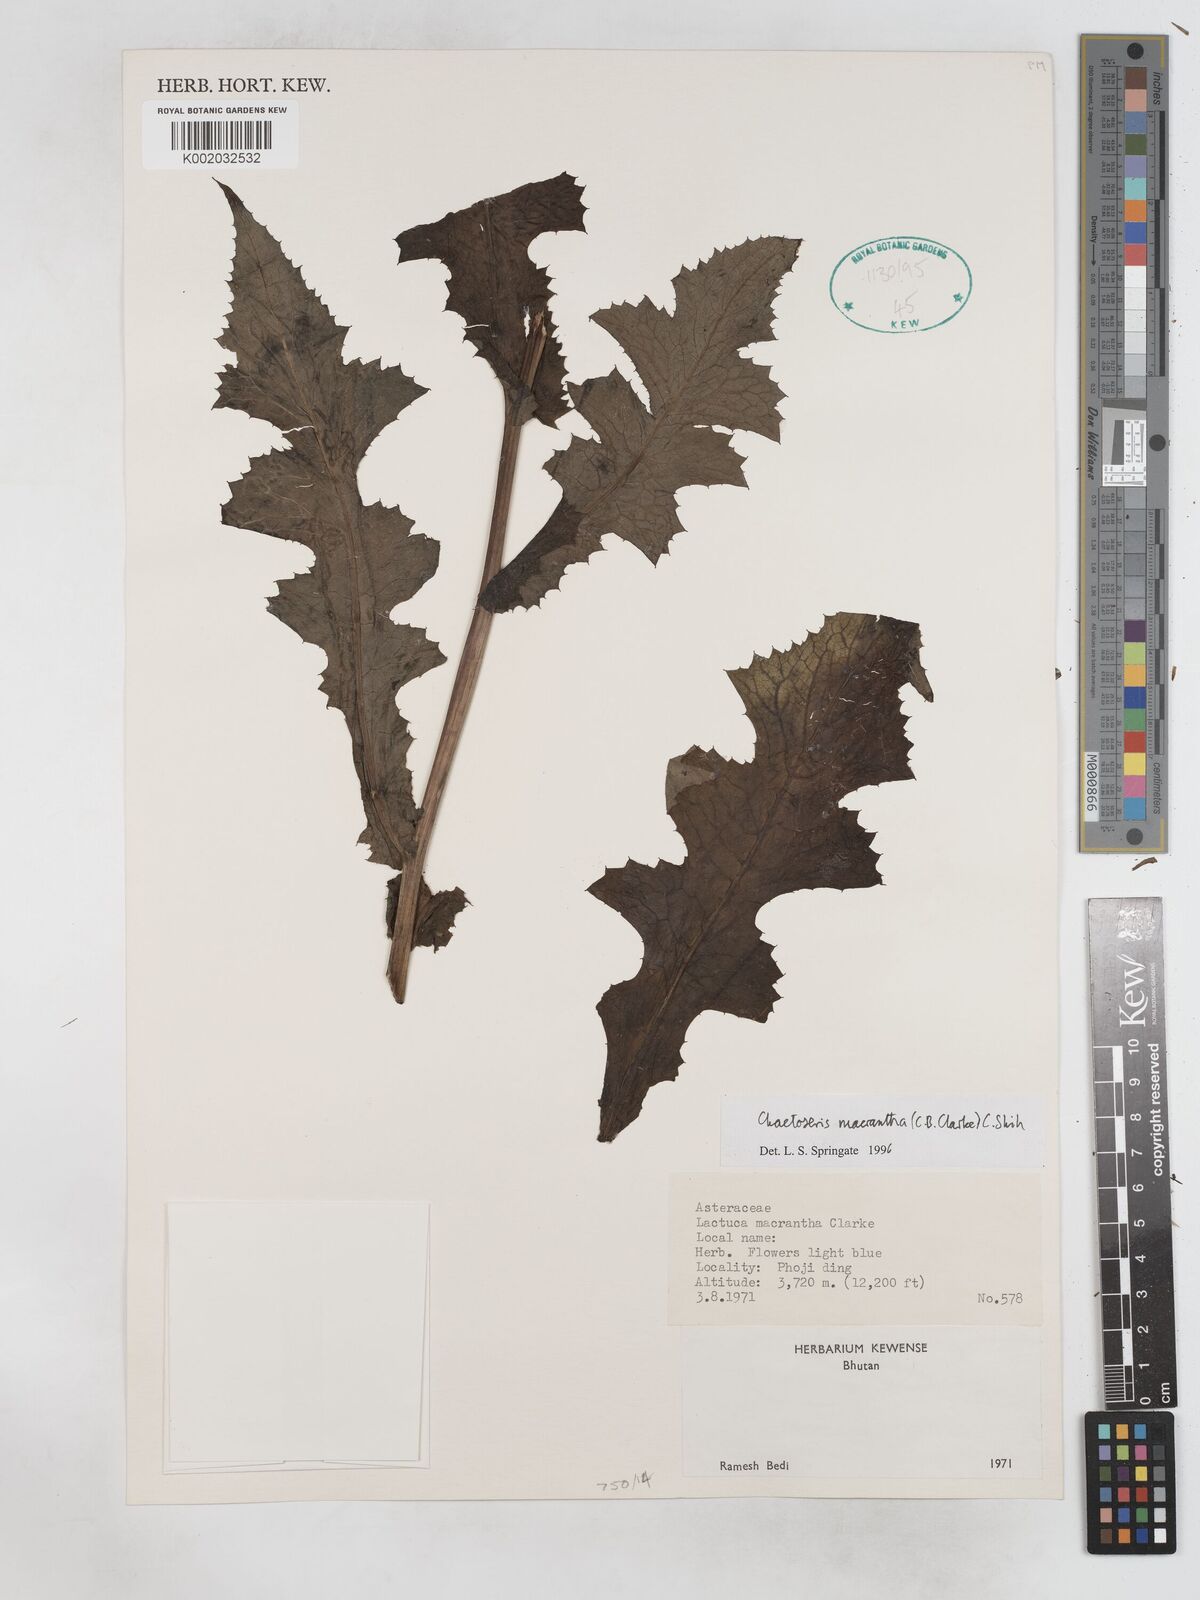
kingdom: Plantae
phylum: Tracheophyta
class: Magnoliopsida
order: Asterales
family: Asteraceae
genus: Melanoseris
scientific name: Melanoseris macrantha
